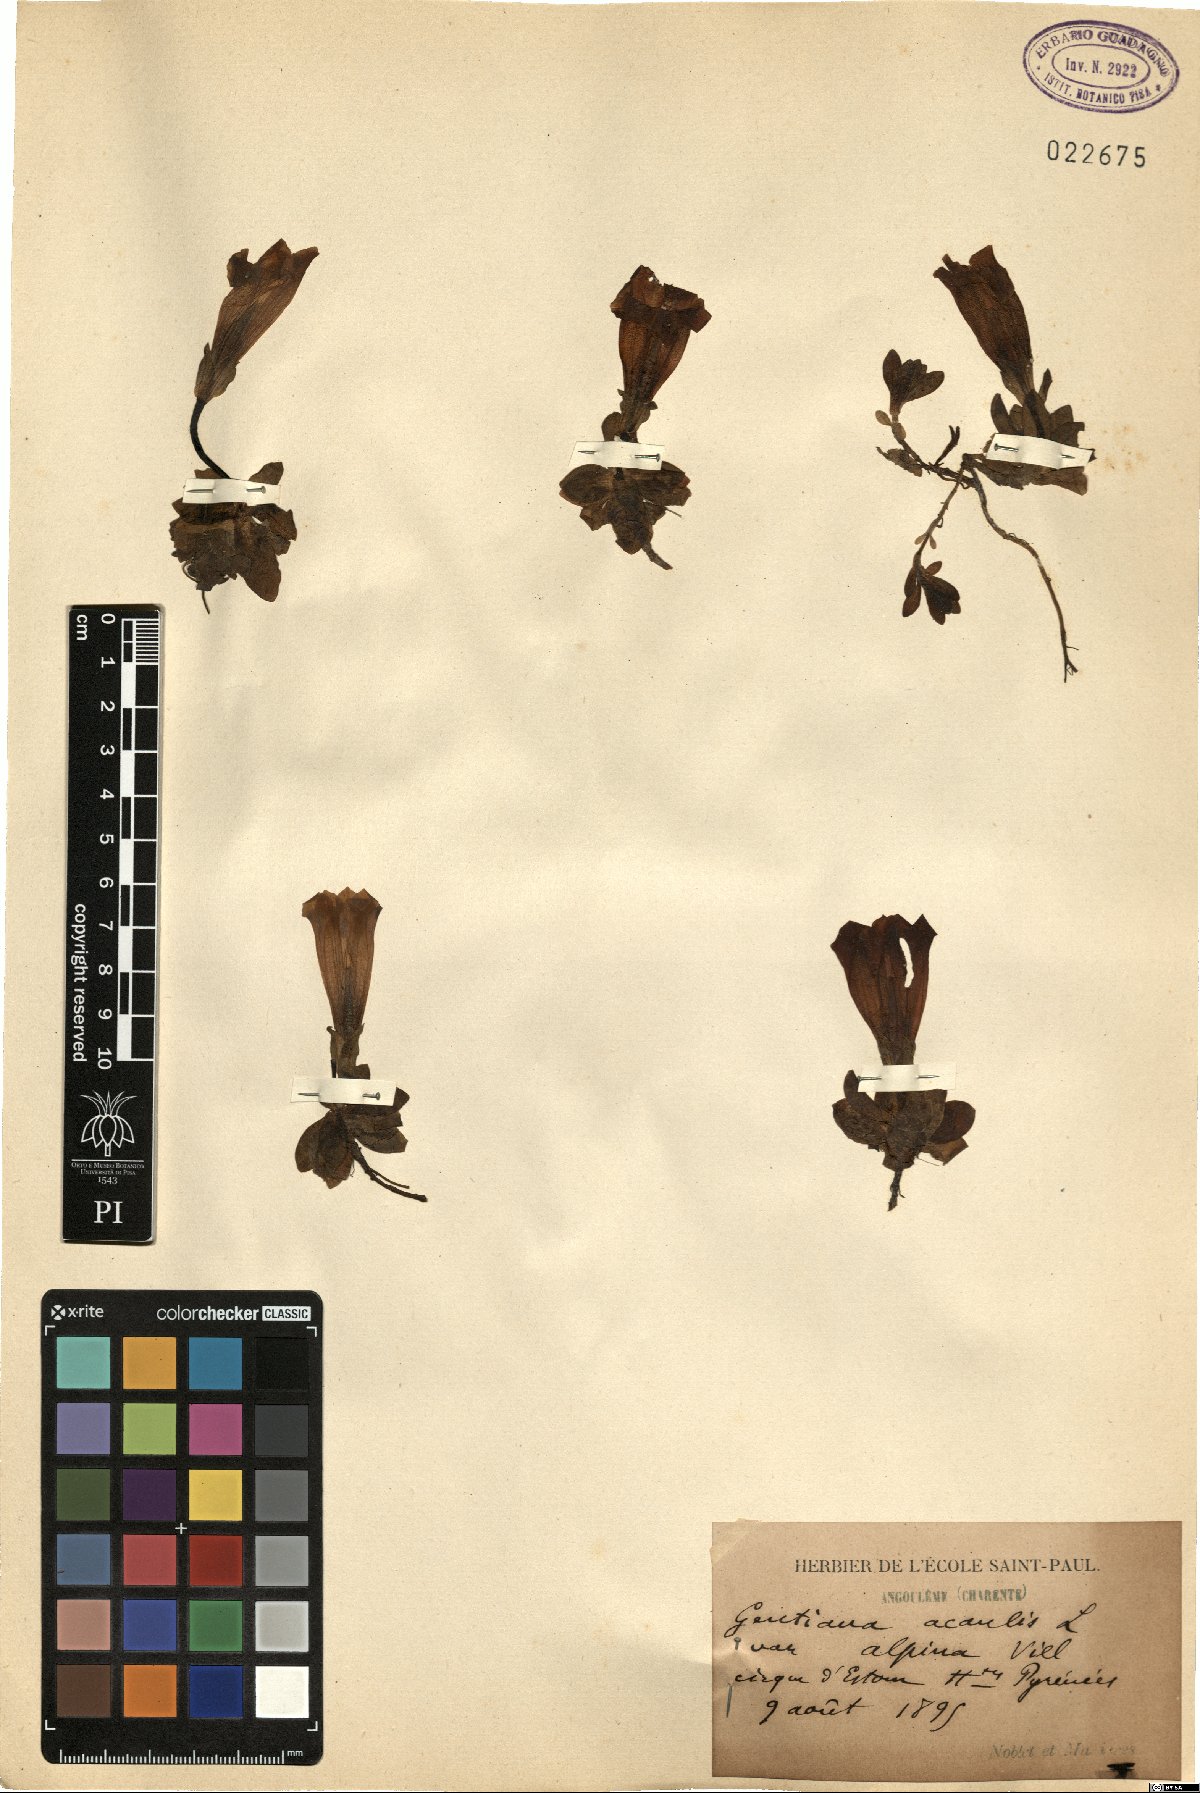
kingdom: Plantae
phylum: Tracheophyta
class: Magnoliopsida
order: Gentianales
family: Gentianaceae
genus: Gentiana
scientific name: Gentiana alpina
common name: Southern gentian
